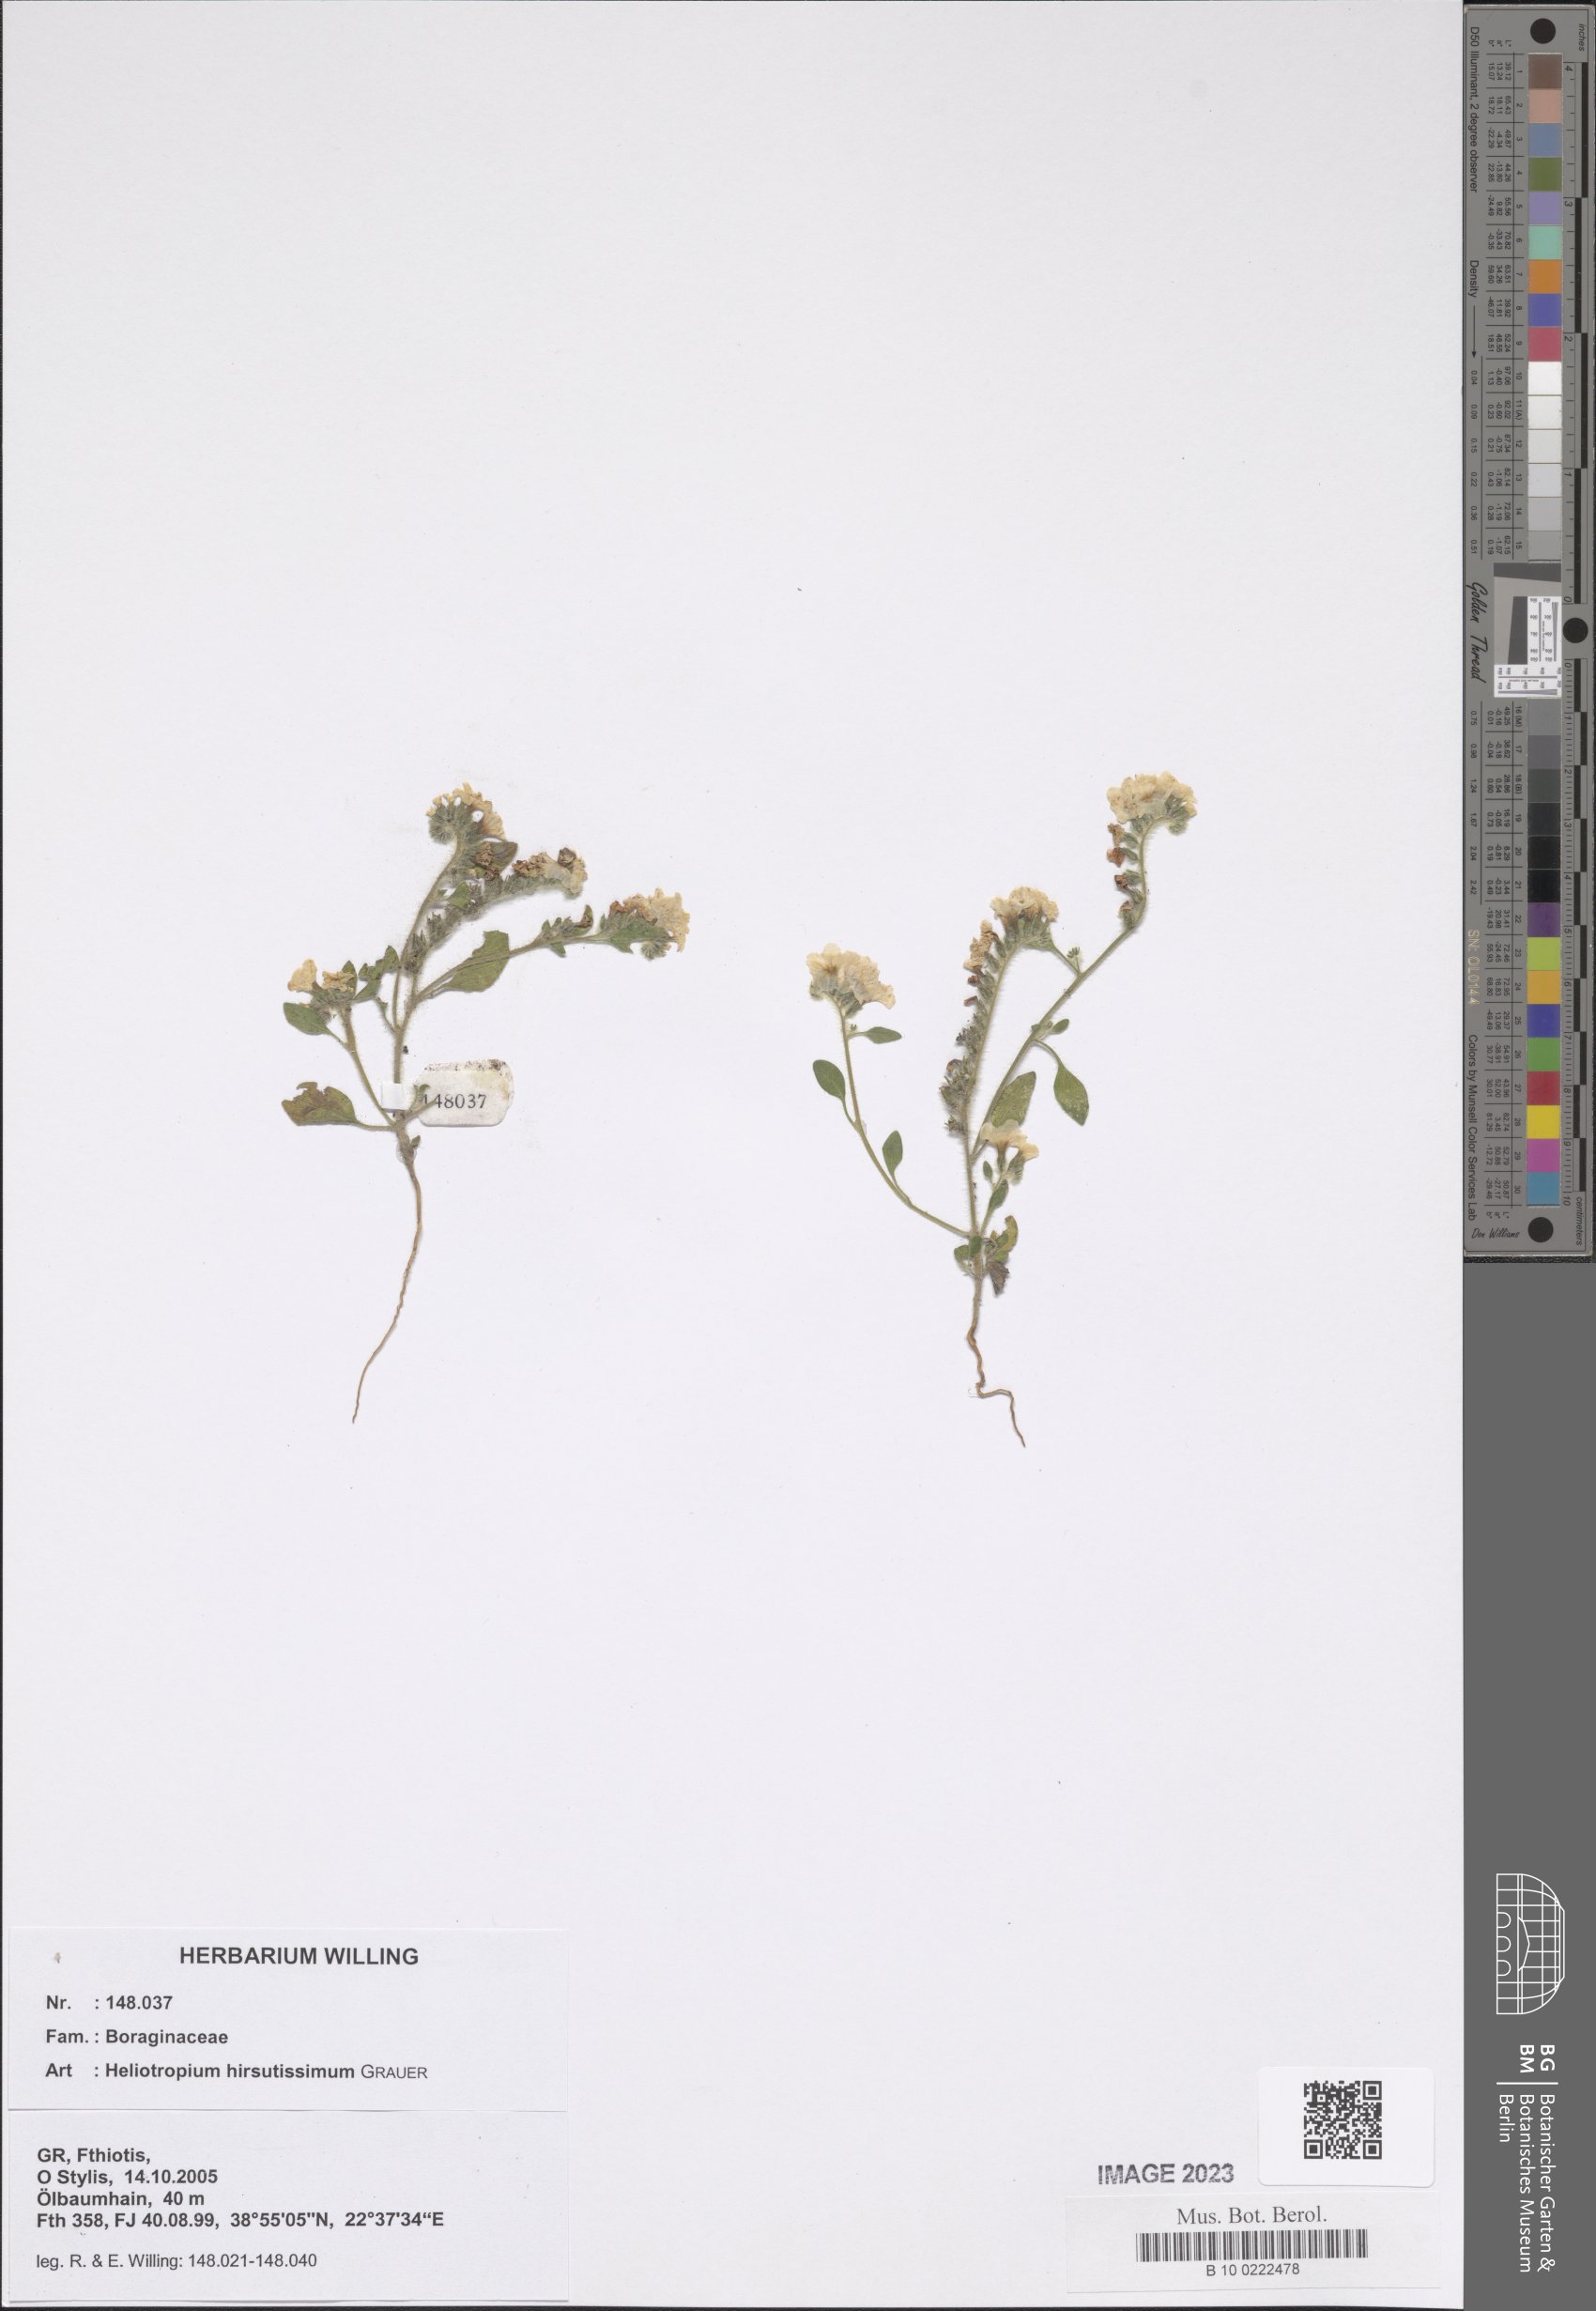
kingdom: Plantae
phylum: Tracheophyta
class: Magnoliopsida
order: Boraginales
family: Heliotropiaceae
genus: Heliotropium
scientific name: Heliotropium hirsutissimum
